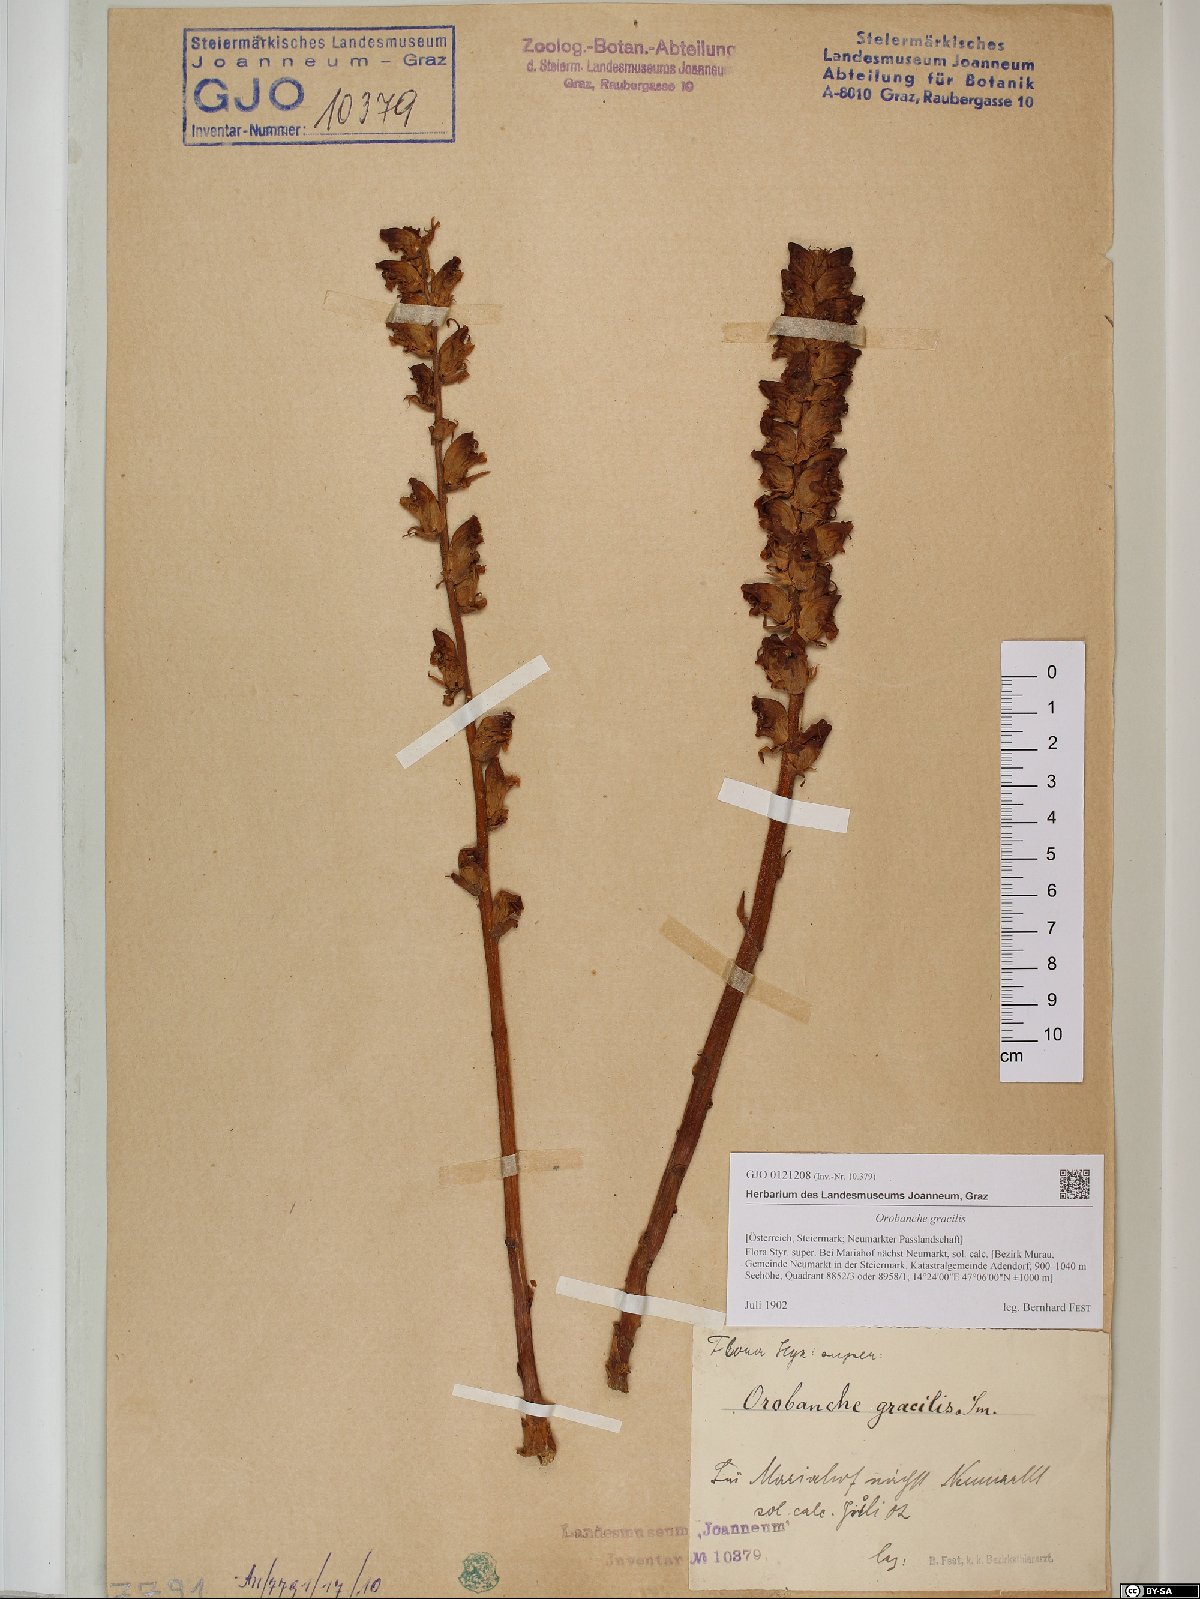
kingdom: Plantae
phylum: Tracheophyta
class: Magnoliopsida
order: Lamiales
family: Orobanchaceae
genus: Orobanche
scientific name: Orobanche gracilis
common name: Slender broomrape
